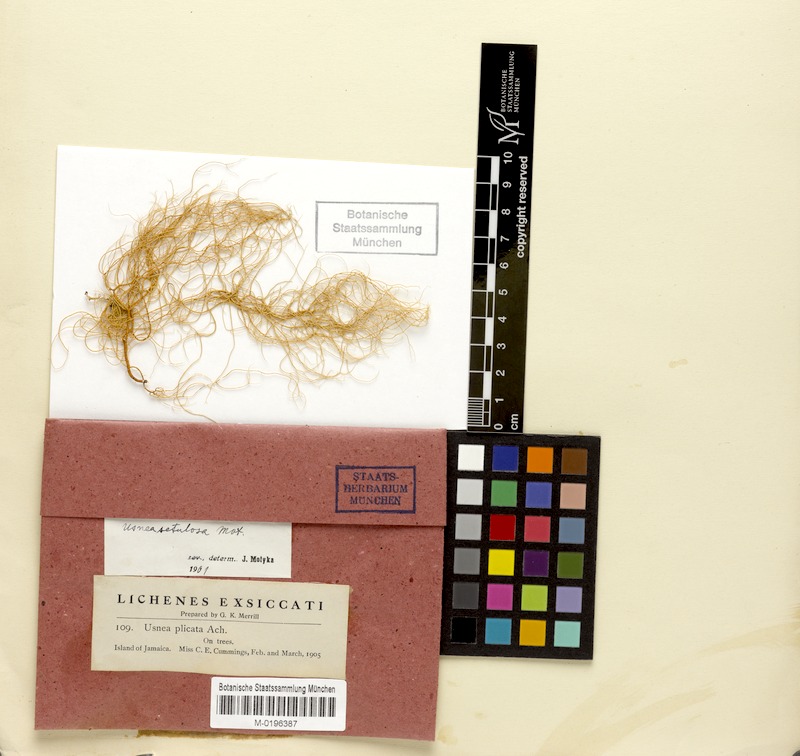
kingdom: Fungi
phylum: Ascomycota
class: Lecanoromycetes
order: Lecanorales
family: Parmeliaceae
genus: Usnea
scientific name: Usnea setulosa
